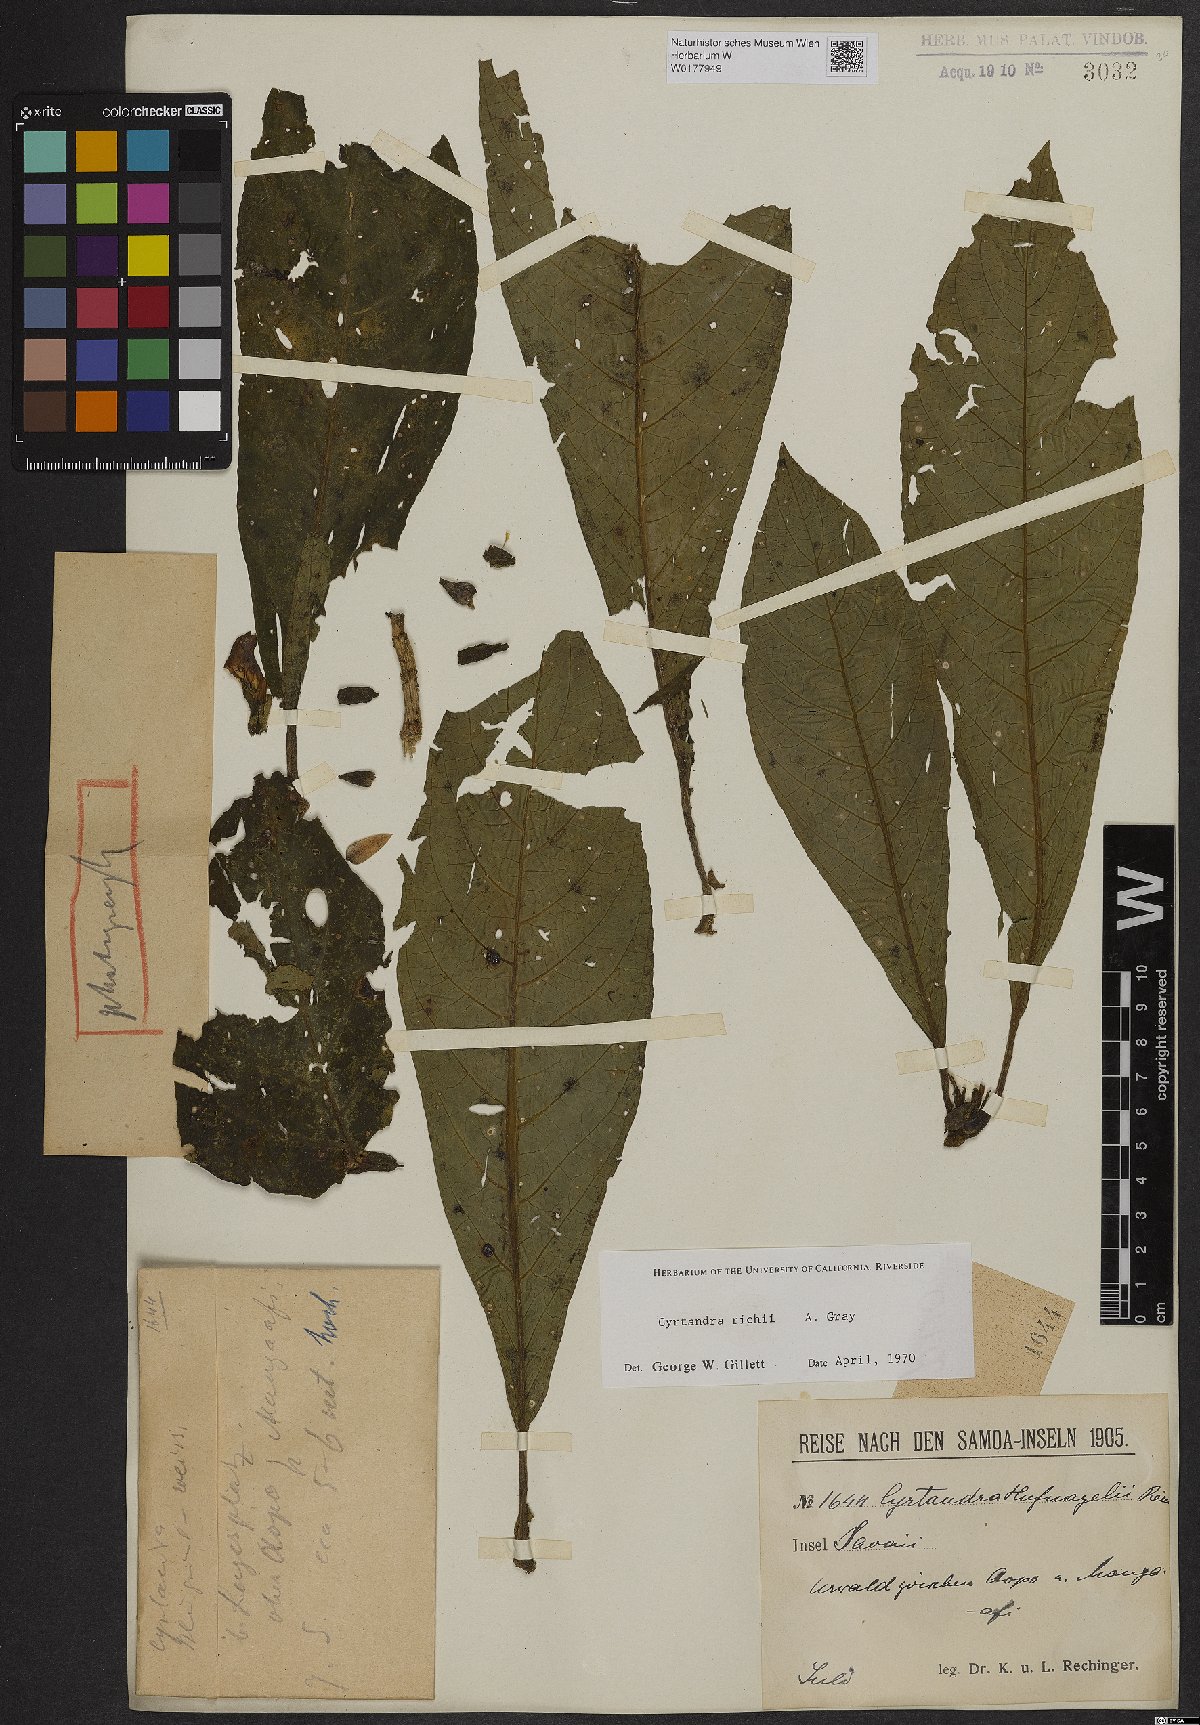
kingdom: Plantae
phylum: Tracheophyta
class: Magnoliopsida
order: Lamiales
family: Gesneriaceae
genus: Cyrtandra
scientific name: Cyrtandra richii
